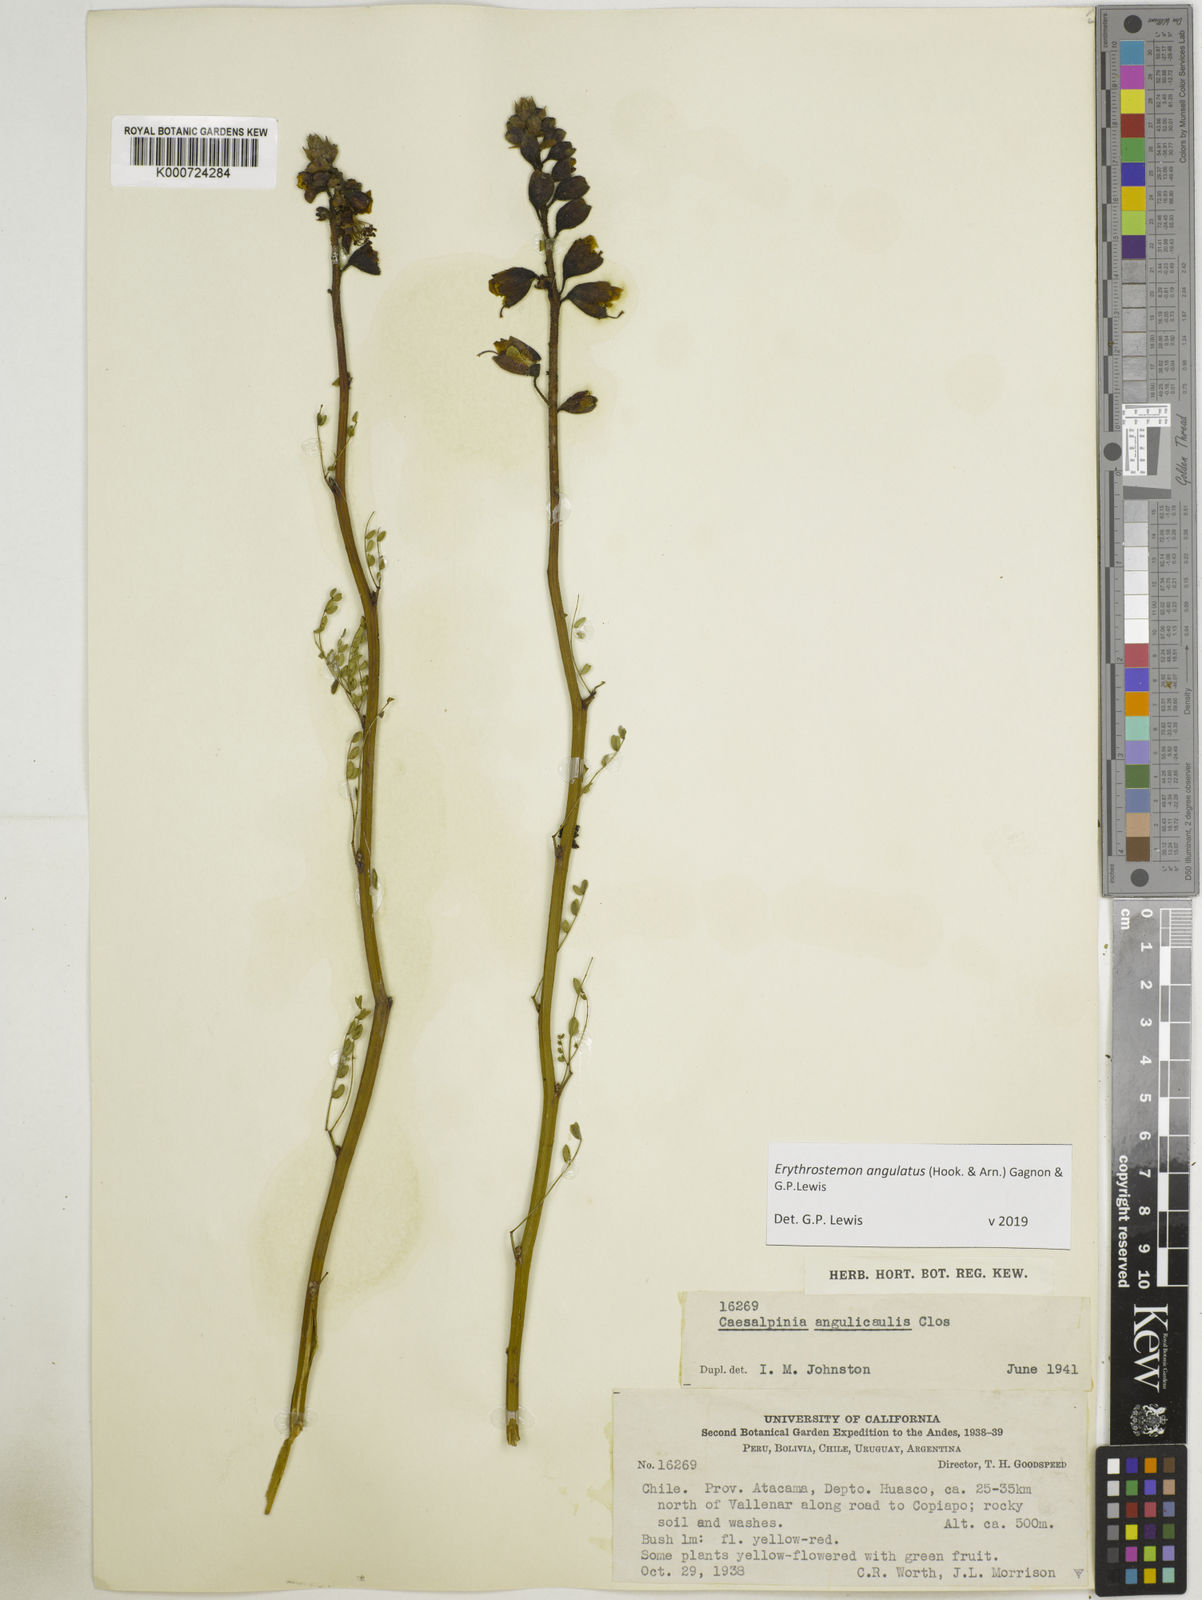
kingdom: Plantae
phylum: Tracheophyta
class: Magnoliopsida
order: Fabales
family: Fabaceae
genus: Caesalpinia
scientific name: Caesalpinia
